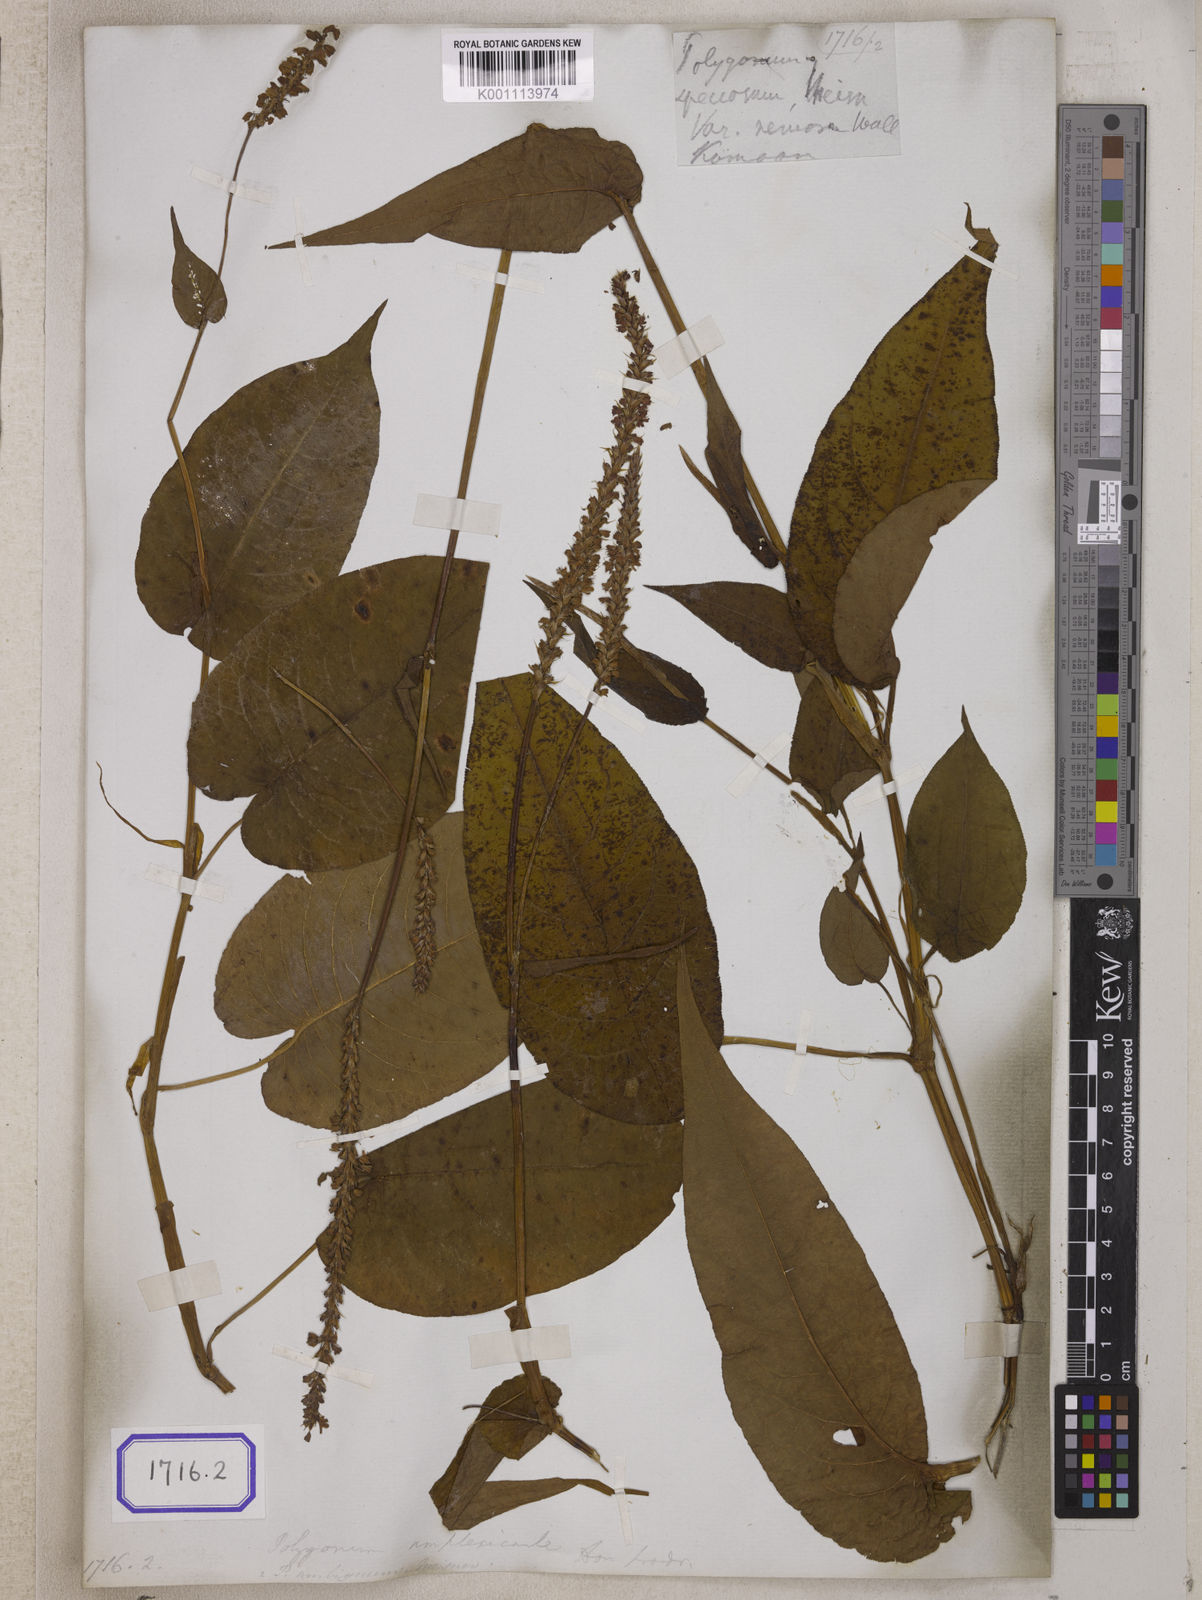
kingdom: Plantae
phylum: Tracheophyta
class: Magnoliopsida
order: Caryophyllales
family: Polygonaceae
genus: Polygonum
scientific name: Polygonum
